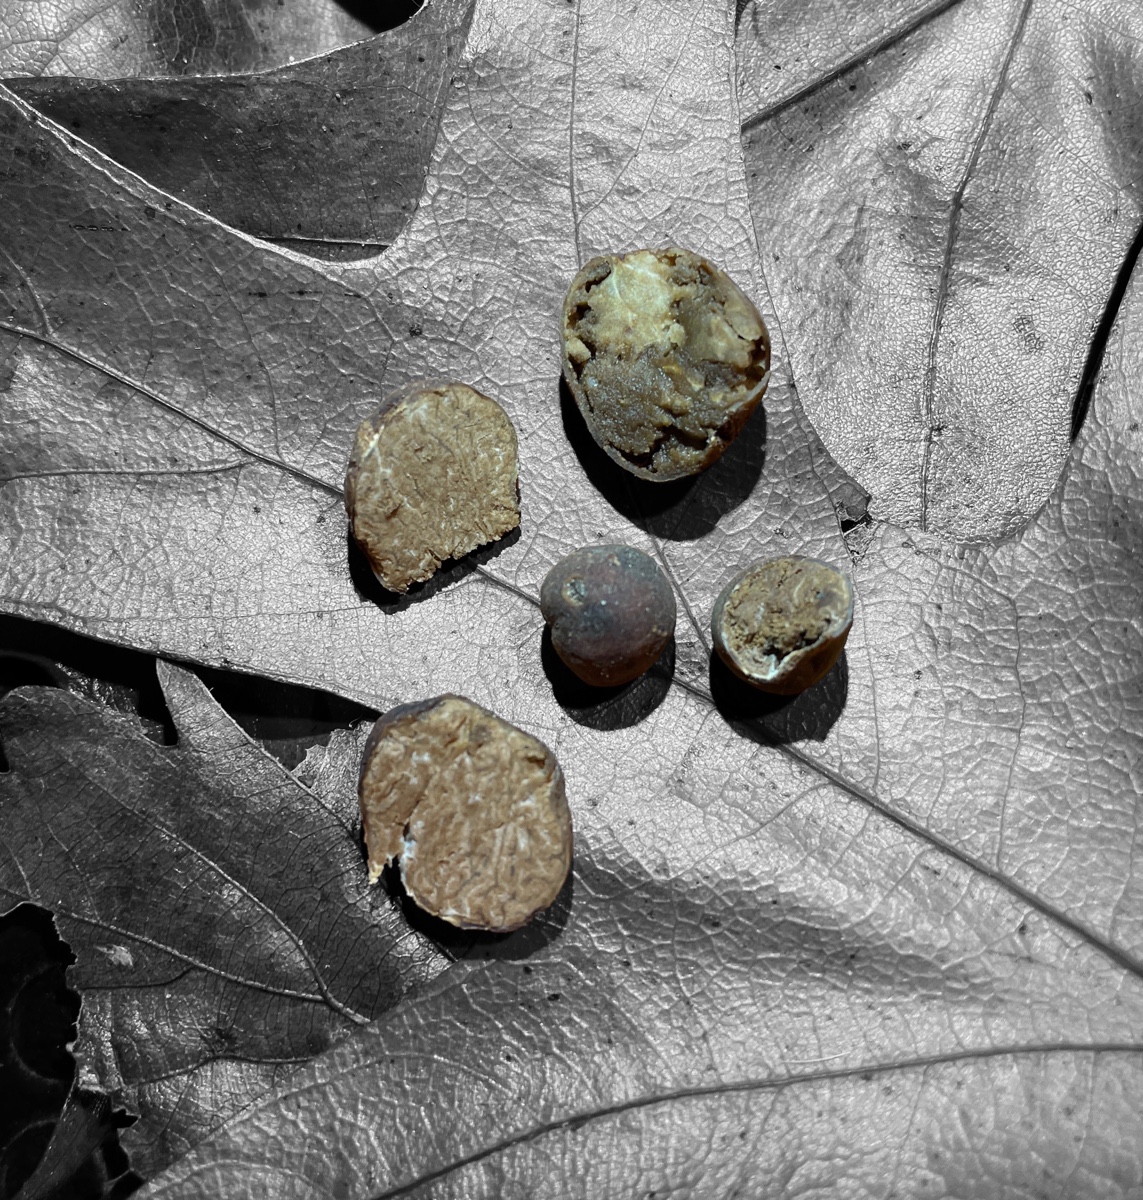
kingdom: Fungi
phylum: Ascomycota
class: Pezizomycetes
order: Pezizales
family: Tuberaceae
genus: Tuber
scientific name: Tuber rufum
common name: rødbrun trøffel
